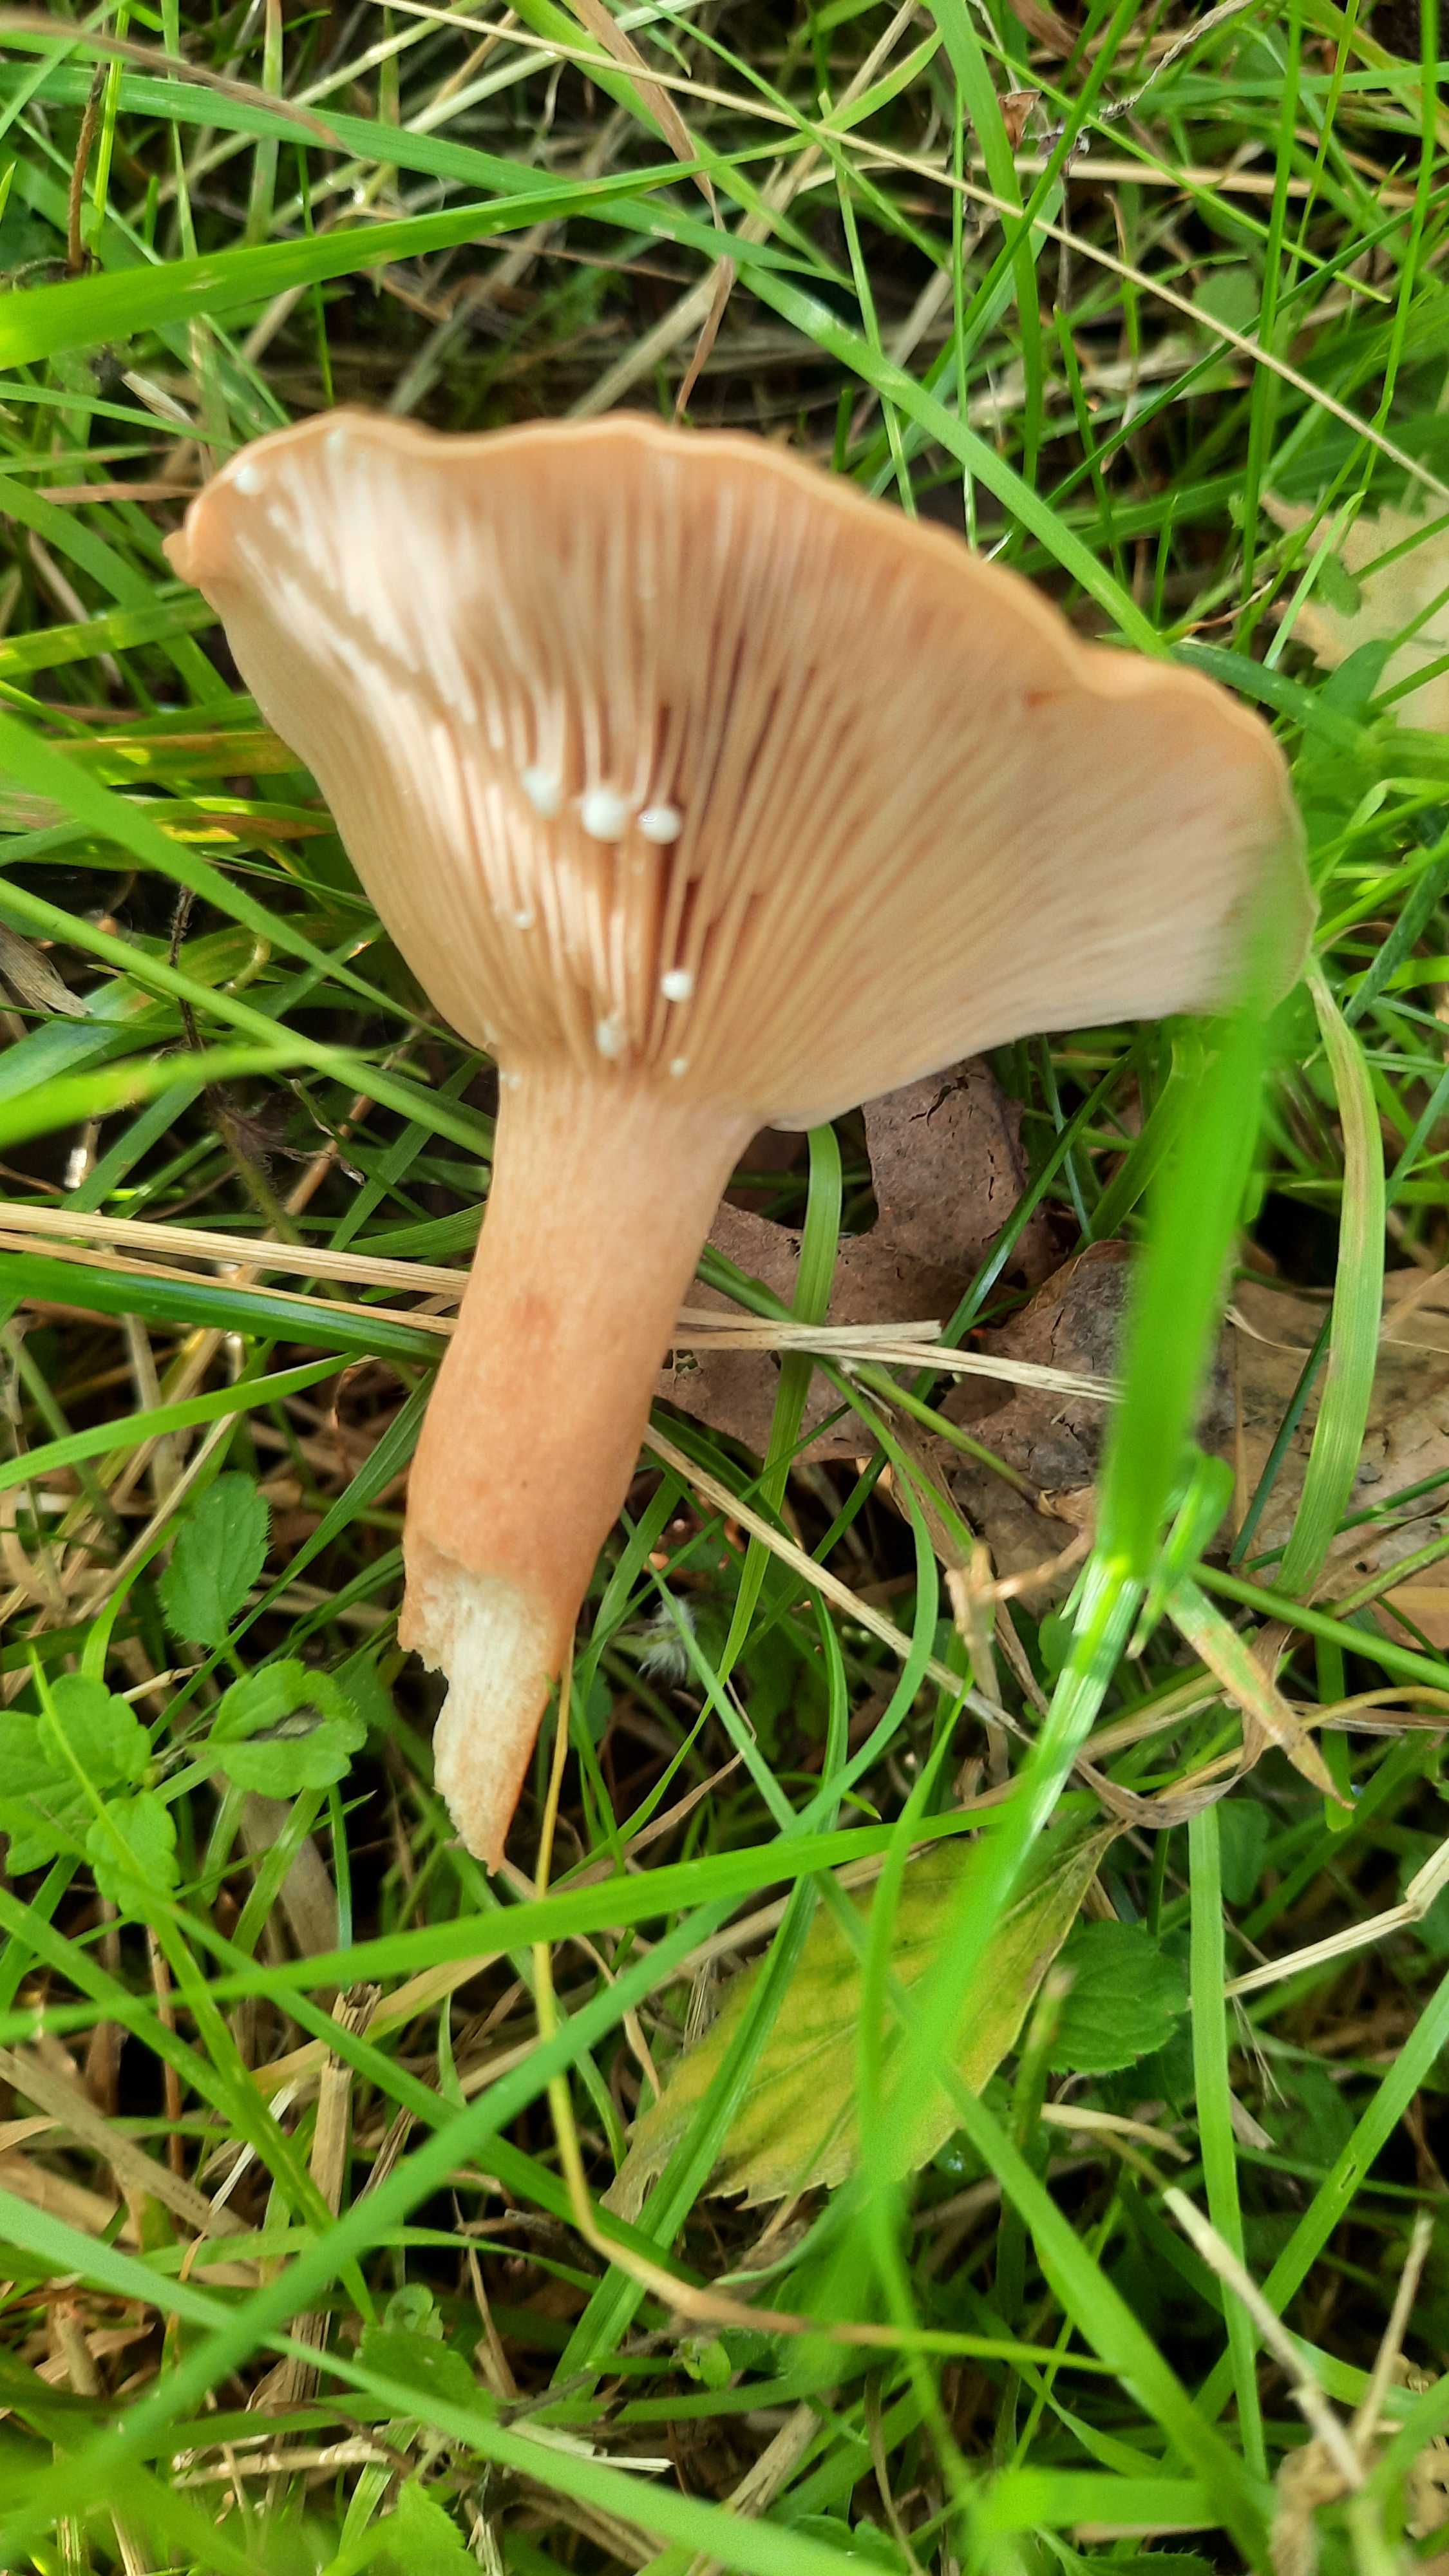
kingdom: Fungi
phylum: Basidiomycota
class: Agaricomycetes
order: Russulales
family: Russulaceae
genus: Lactarius
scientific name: Lactarius
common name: mælkehat
